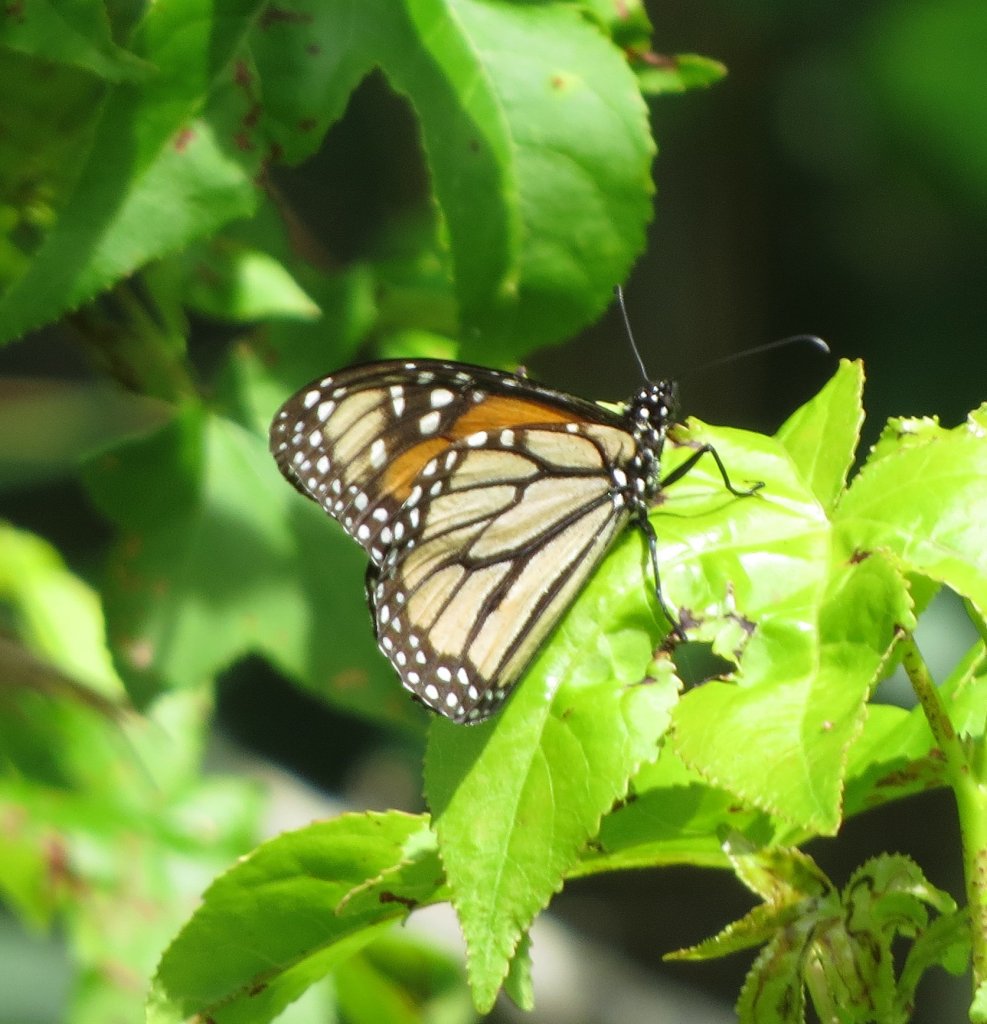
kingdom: Animalia
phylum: Arthropoda
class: Insecta
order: Lepidoptera
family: Nymphalidae
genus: Danaus
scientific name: Danaus plexippus
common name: Monarch
